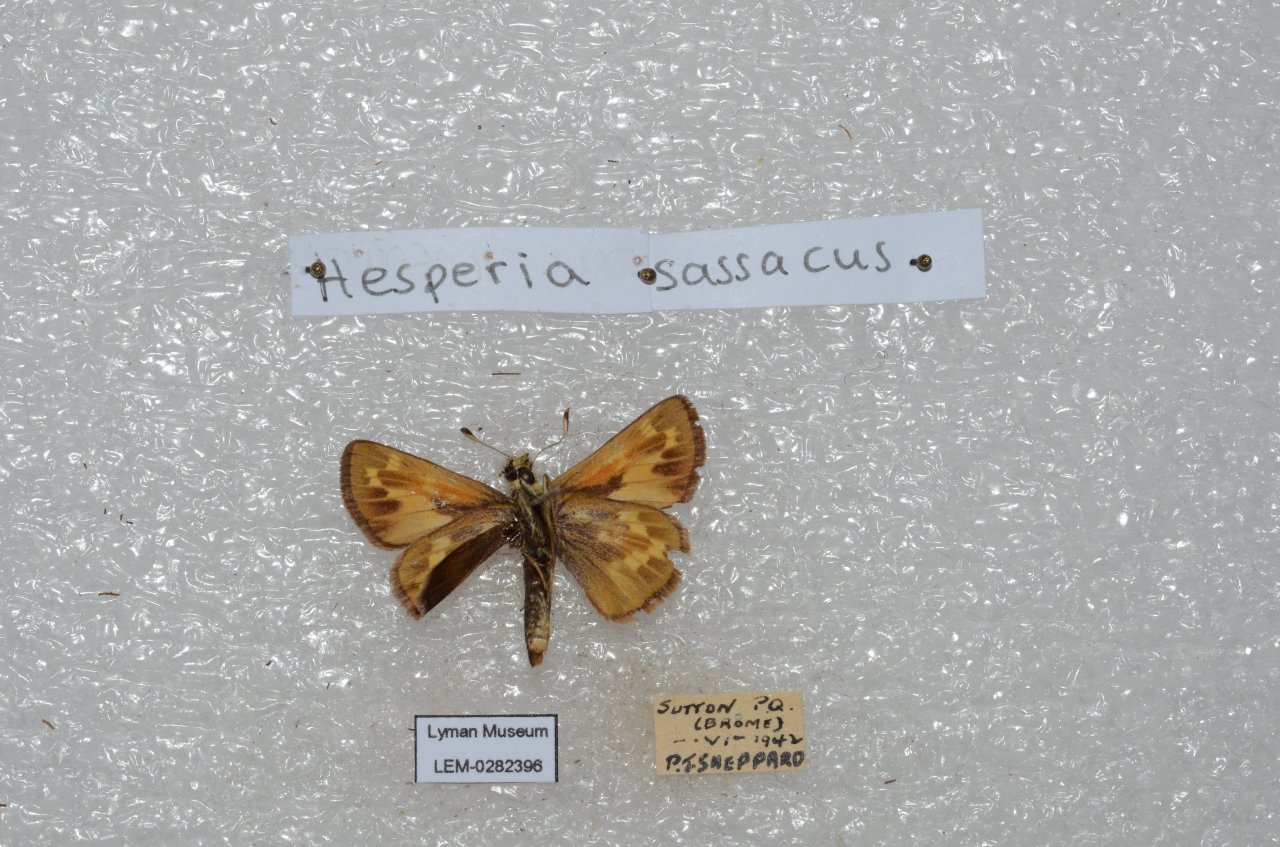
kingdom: Animalia
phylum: Arthropoda
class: Insecta
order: Lepidoptera
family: Hesperiidae
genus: Hesperia
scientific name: Hesperia sassacus
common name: Sassacus Skipper
